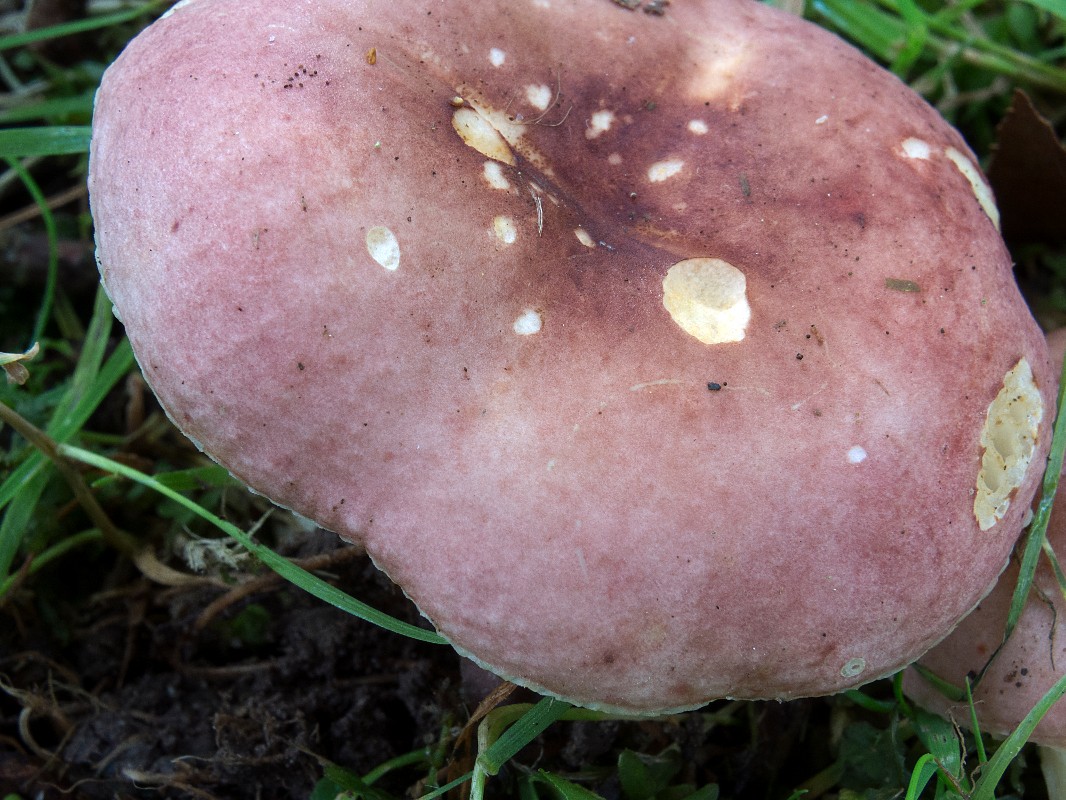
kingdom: Fungi
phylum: Basidiomycota
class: Agaricomycetes
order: Russulales
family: Russulaceae
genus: Russula
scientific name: Russula puellula
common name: gulnende skørhat
